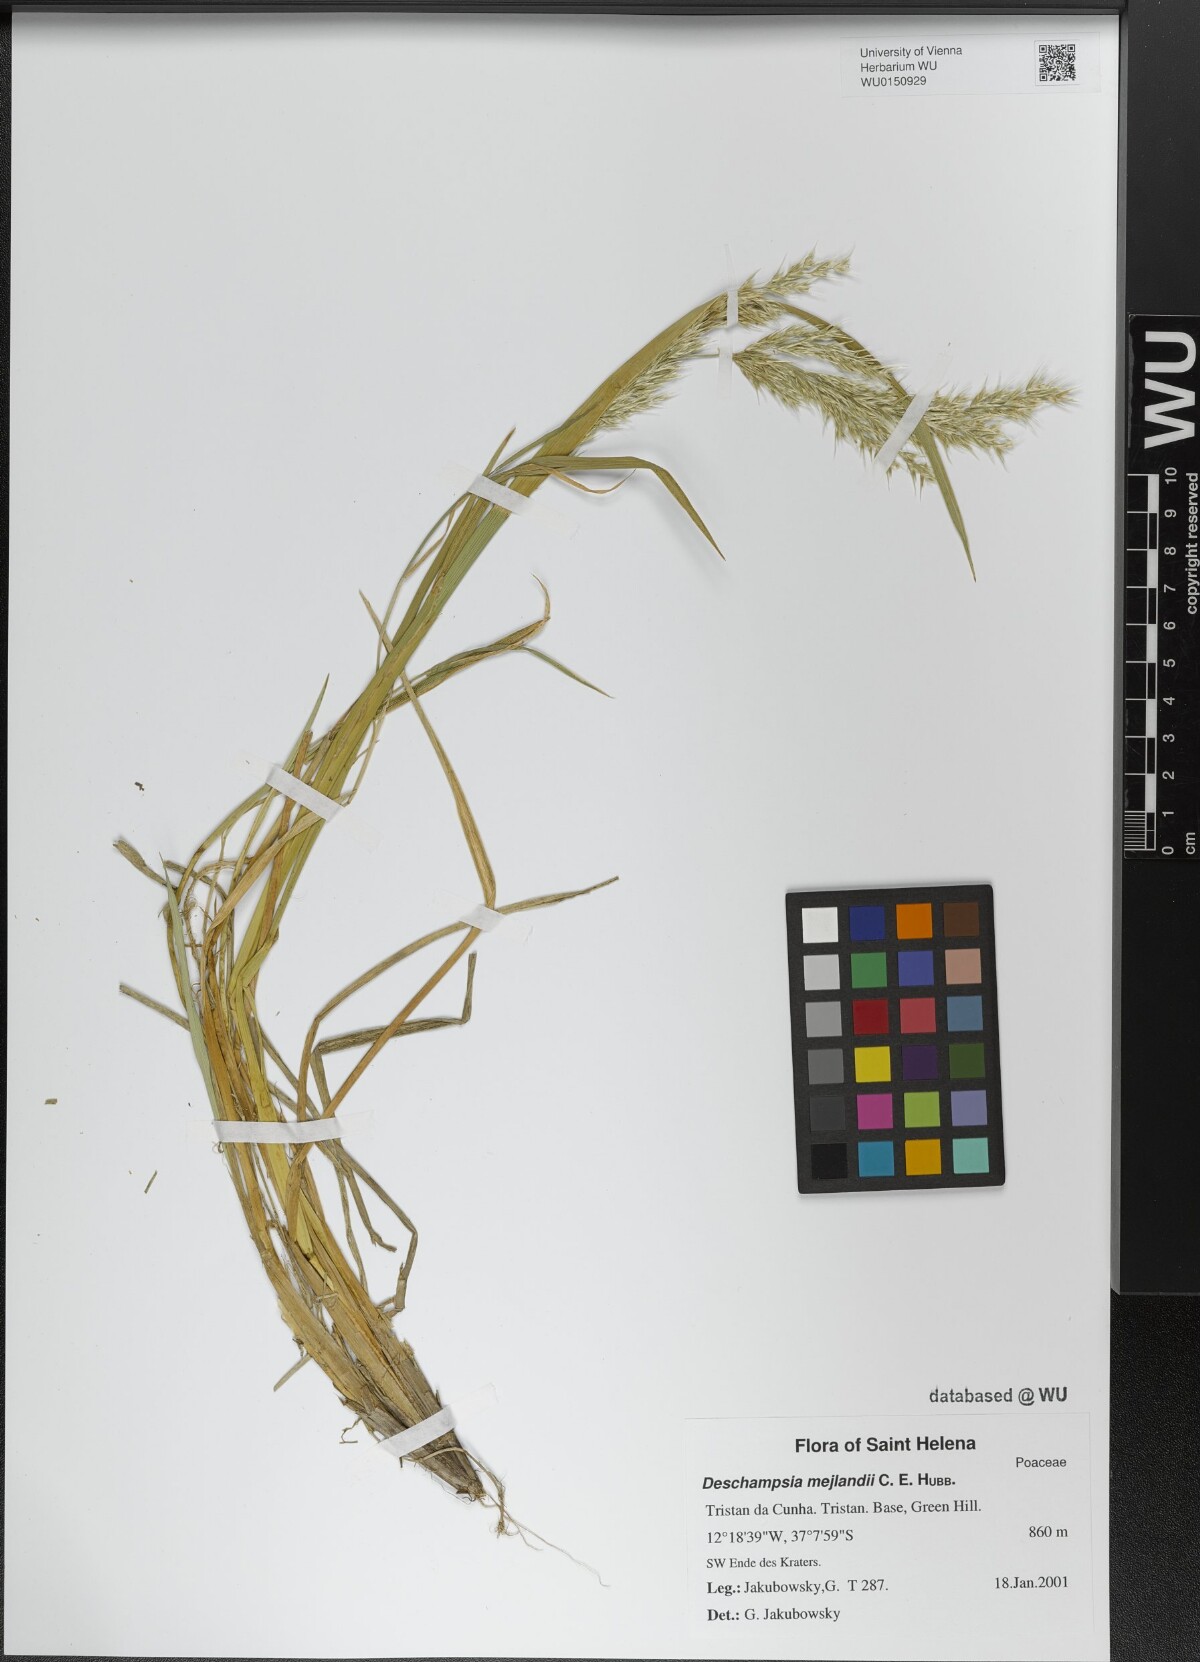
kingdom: Plantae
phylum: Tracheophyta
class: Liliopsida
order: Poales
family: Poaceae
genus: Deschampsia
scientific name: Deschampsia mejlandii
